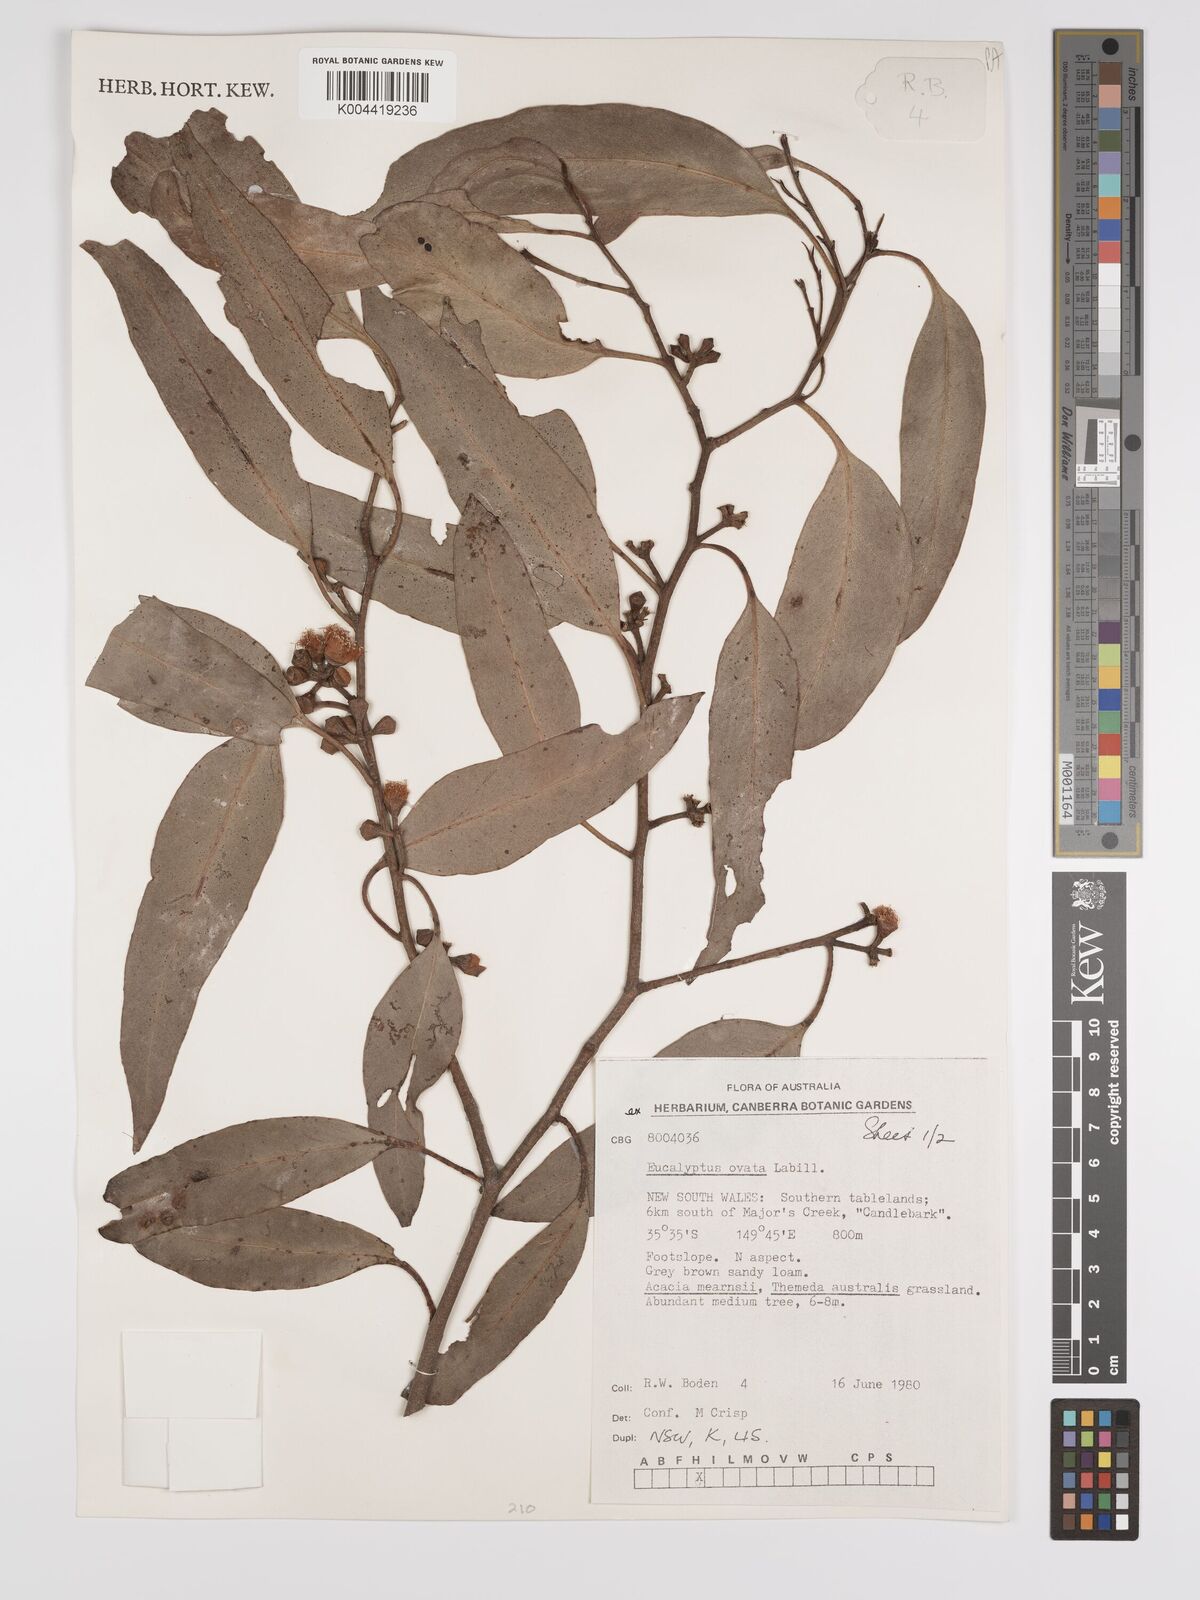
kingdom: Plantae
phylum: Tracheophyta
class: Magnoliopsida
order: Myrtales
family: Myrtaceae
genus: Eucalyptus
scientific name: Eucalyptus
